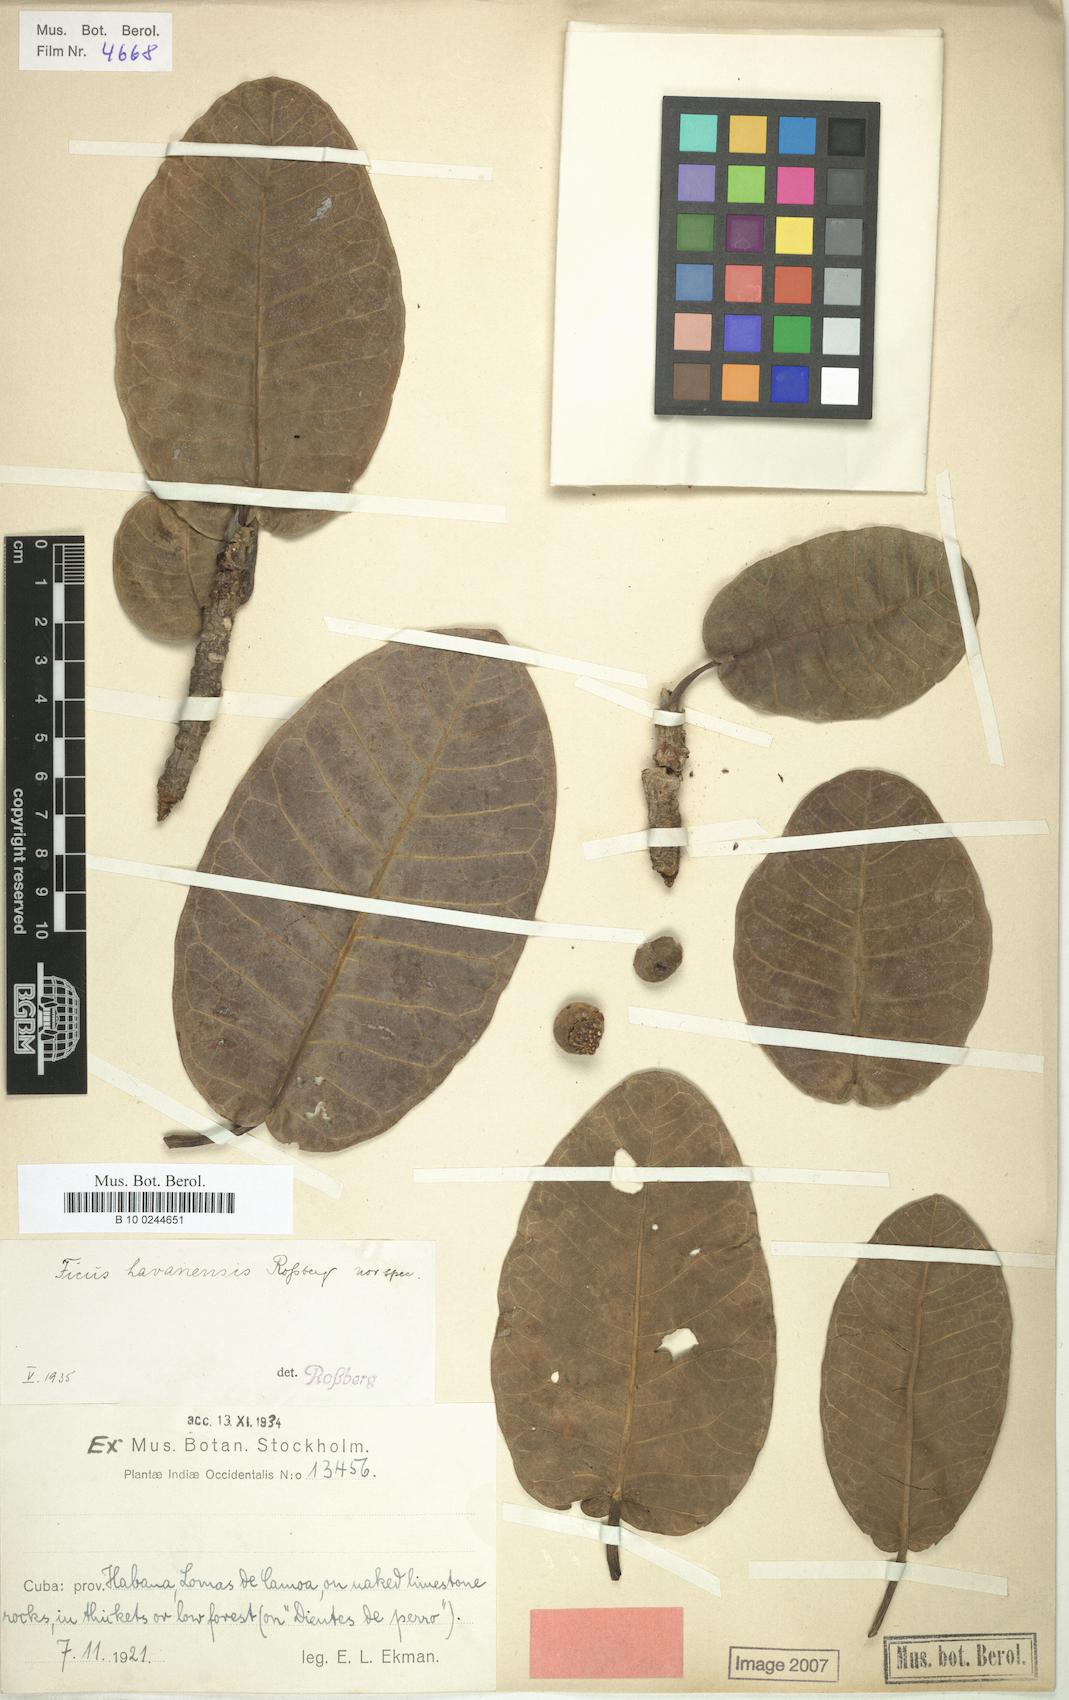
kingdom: Plantae
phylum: Tracheophyta
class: Magnoliopsida
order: Rosales
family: Moraceae
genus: Ficus
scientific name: Ficus crocata
